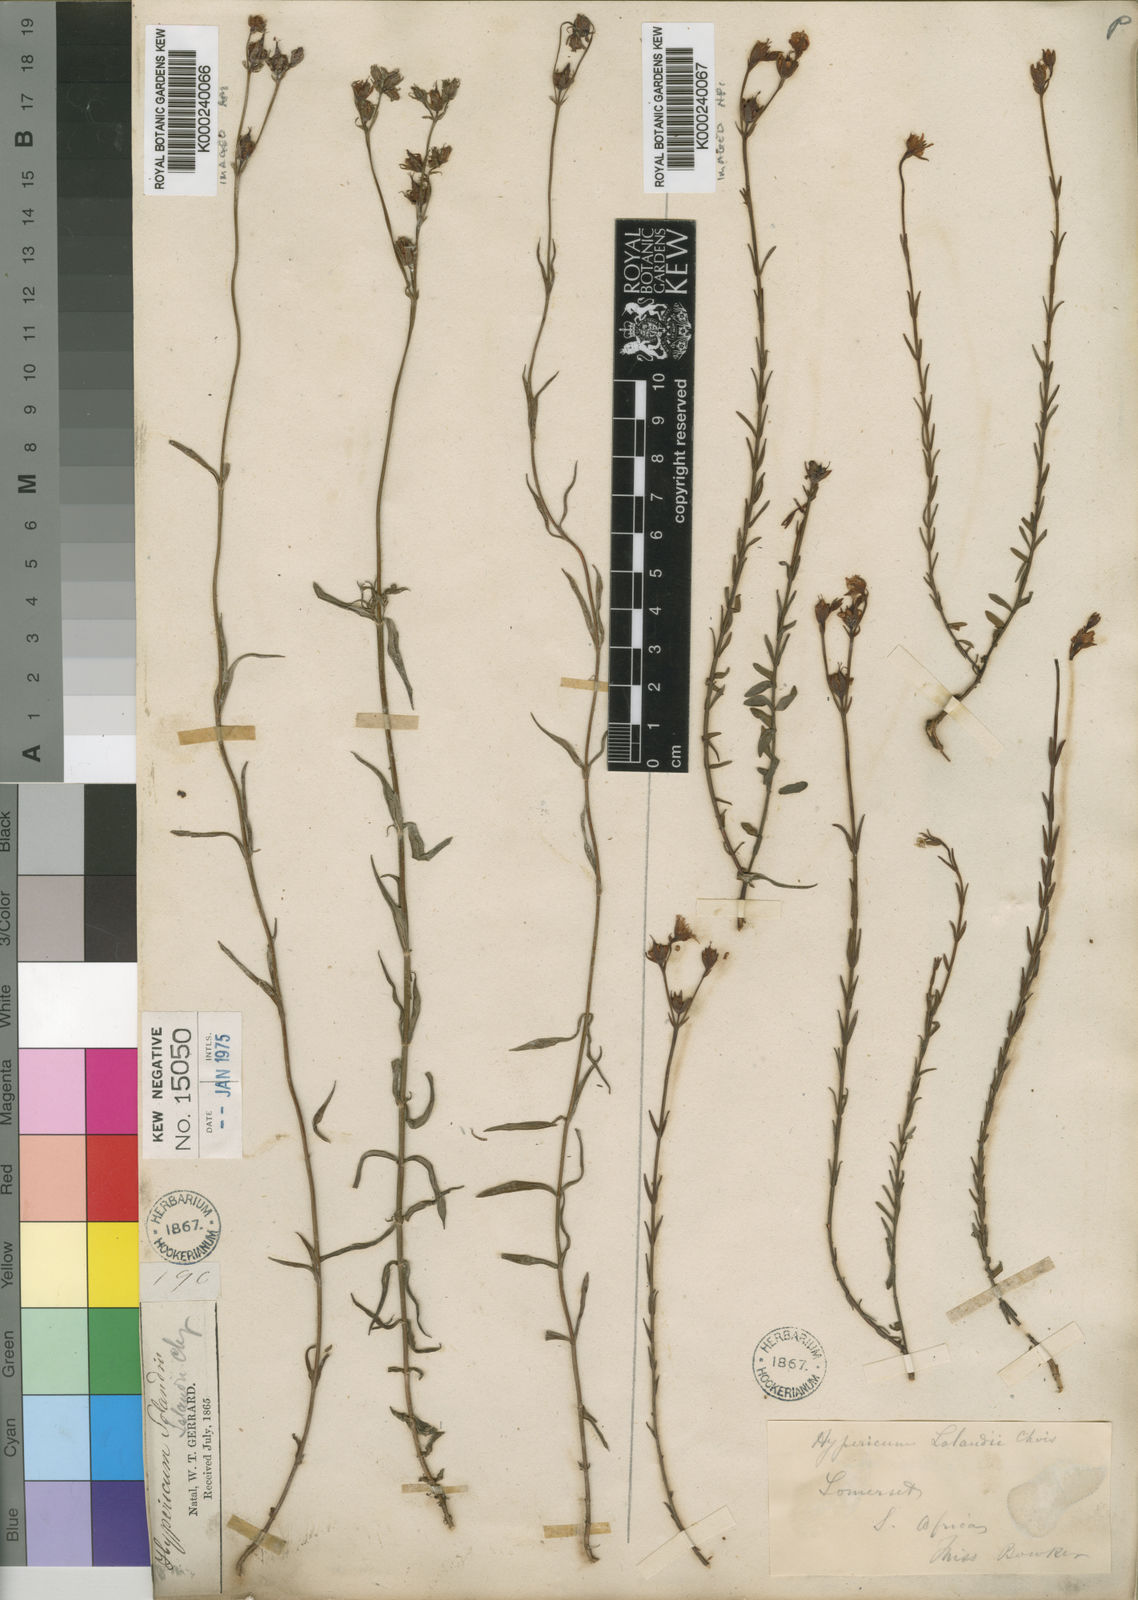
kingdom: Plantae
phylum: Tracheophyta
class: Magnoliopsida
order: Malpighiales
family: Hypericaceae
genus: Hypericum
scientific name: Hypericum lalandii
